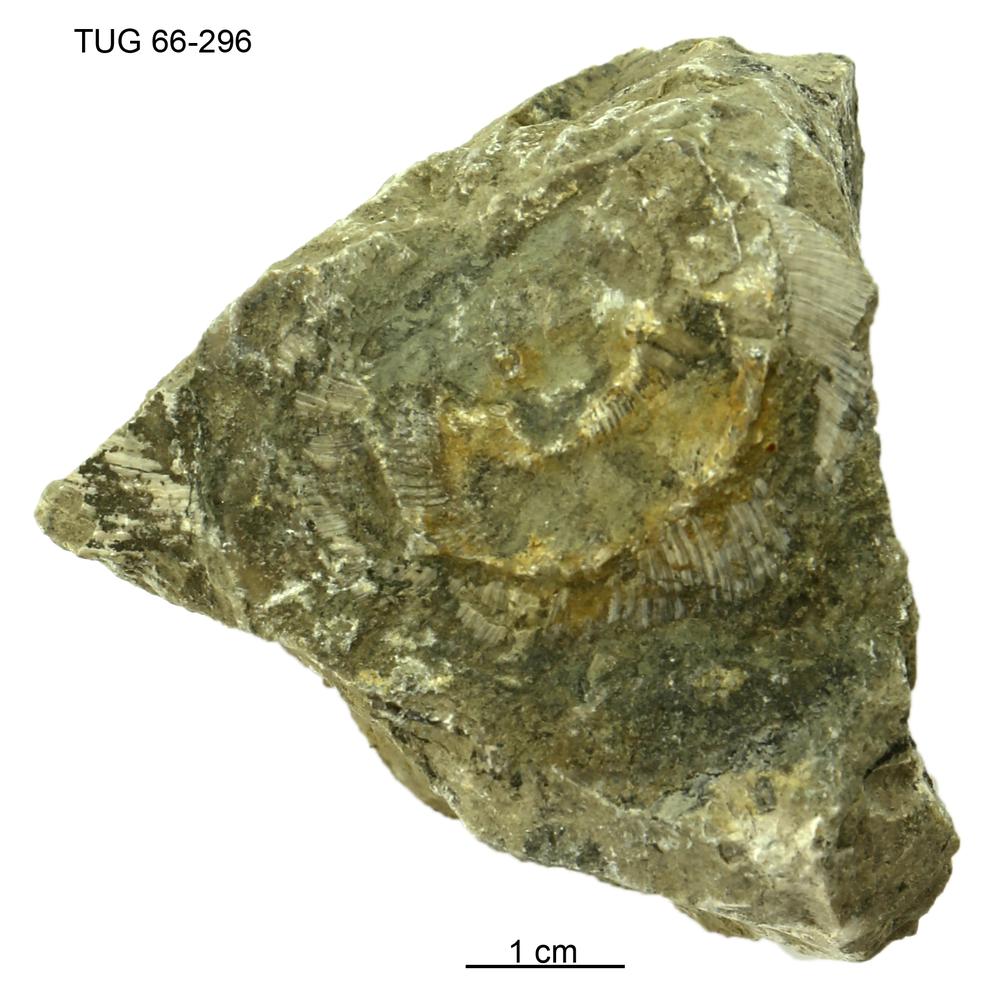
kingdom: Animalia
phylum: Mollusca
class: Cephalopoda
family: Trocholitidae
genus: Schroederoceras
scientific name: Schroederoceras
